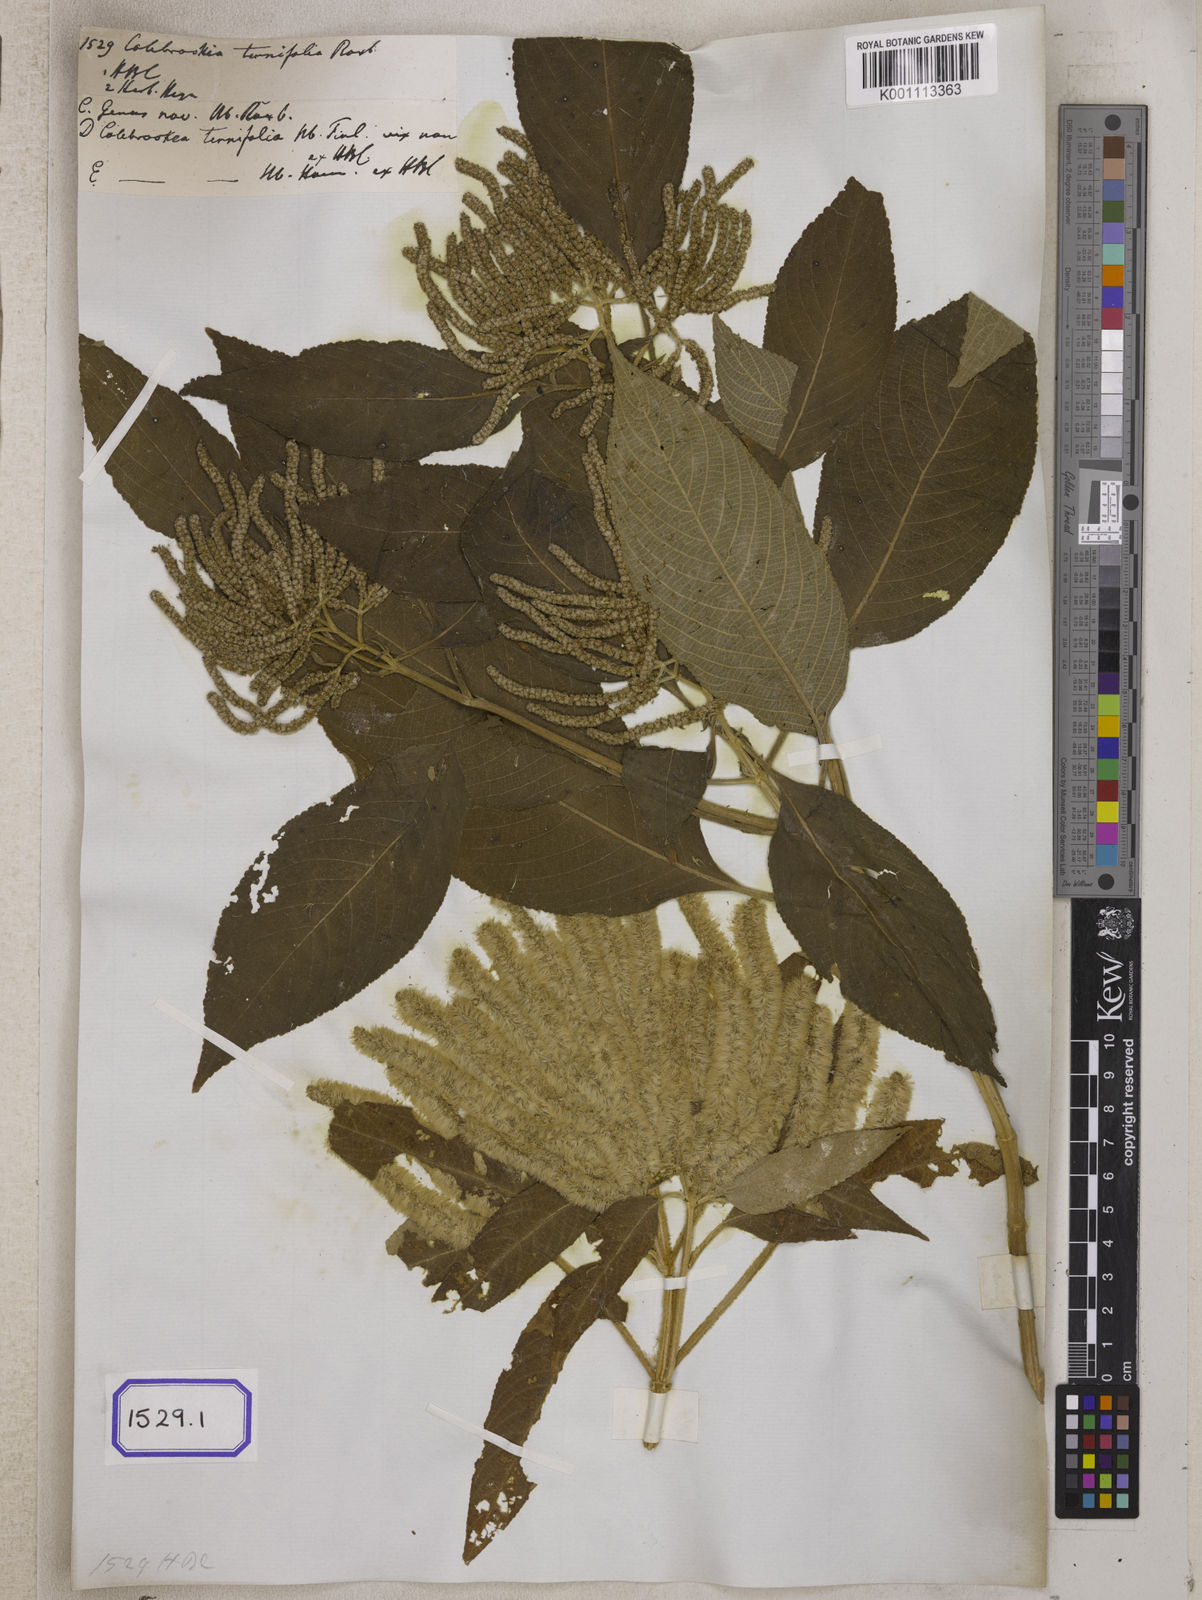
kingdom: Plantae
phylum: Tracheophyta
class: Magnoliopsida
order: Lamiales
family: Lamiaceae
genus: Colebrookea
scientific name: Colebrookea oppositifolia
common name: Indian squirrel tail
